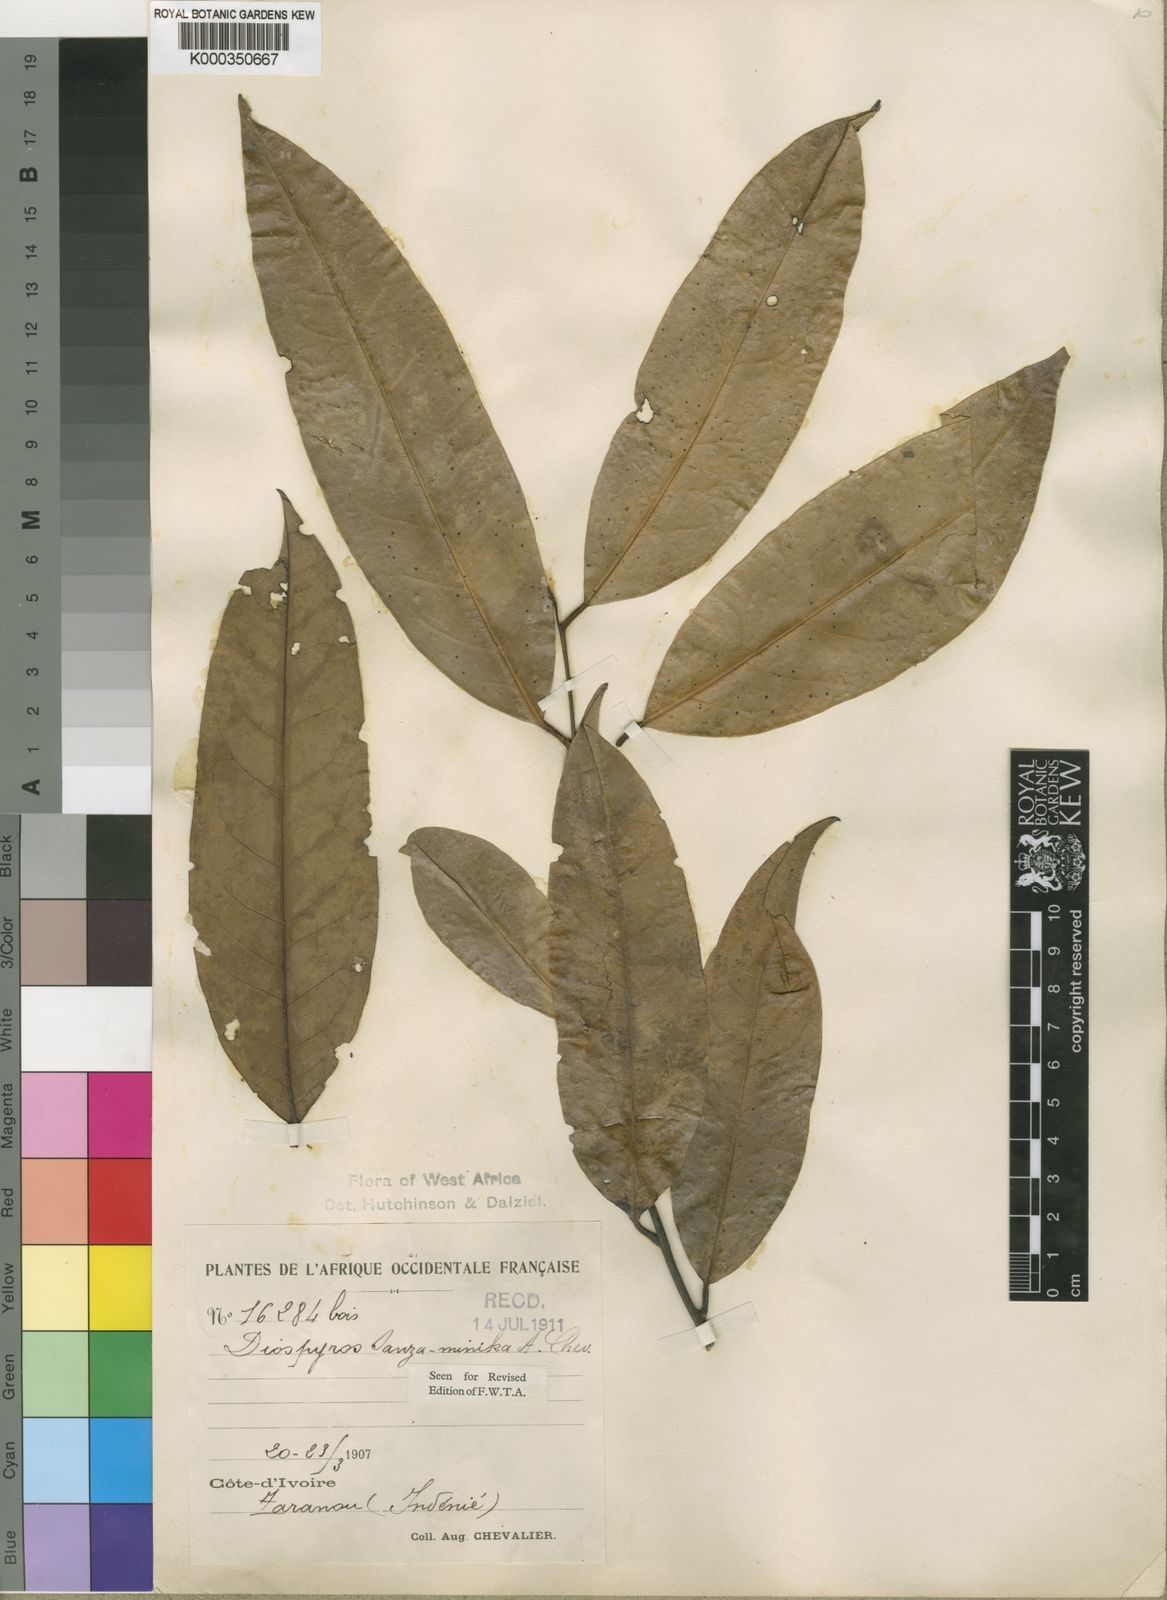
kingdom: Plantae
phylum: Tracheophyta
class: Magnoliopsida
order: Ericales
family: Ebenaceae
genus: Diospyros
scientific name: Diospyros sanza-minika
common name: Flint bark
